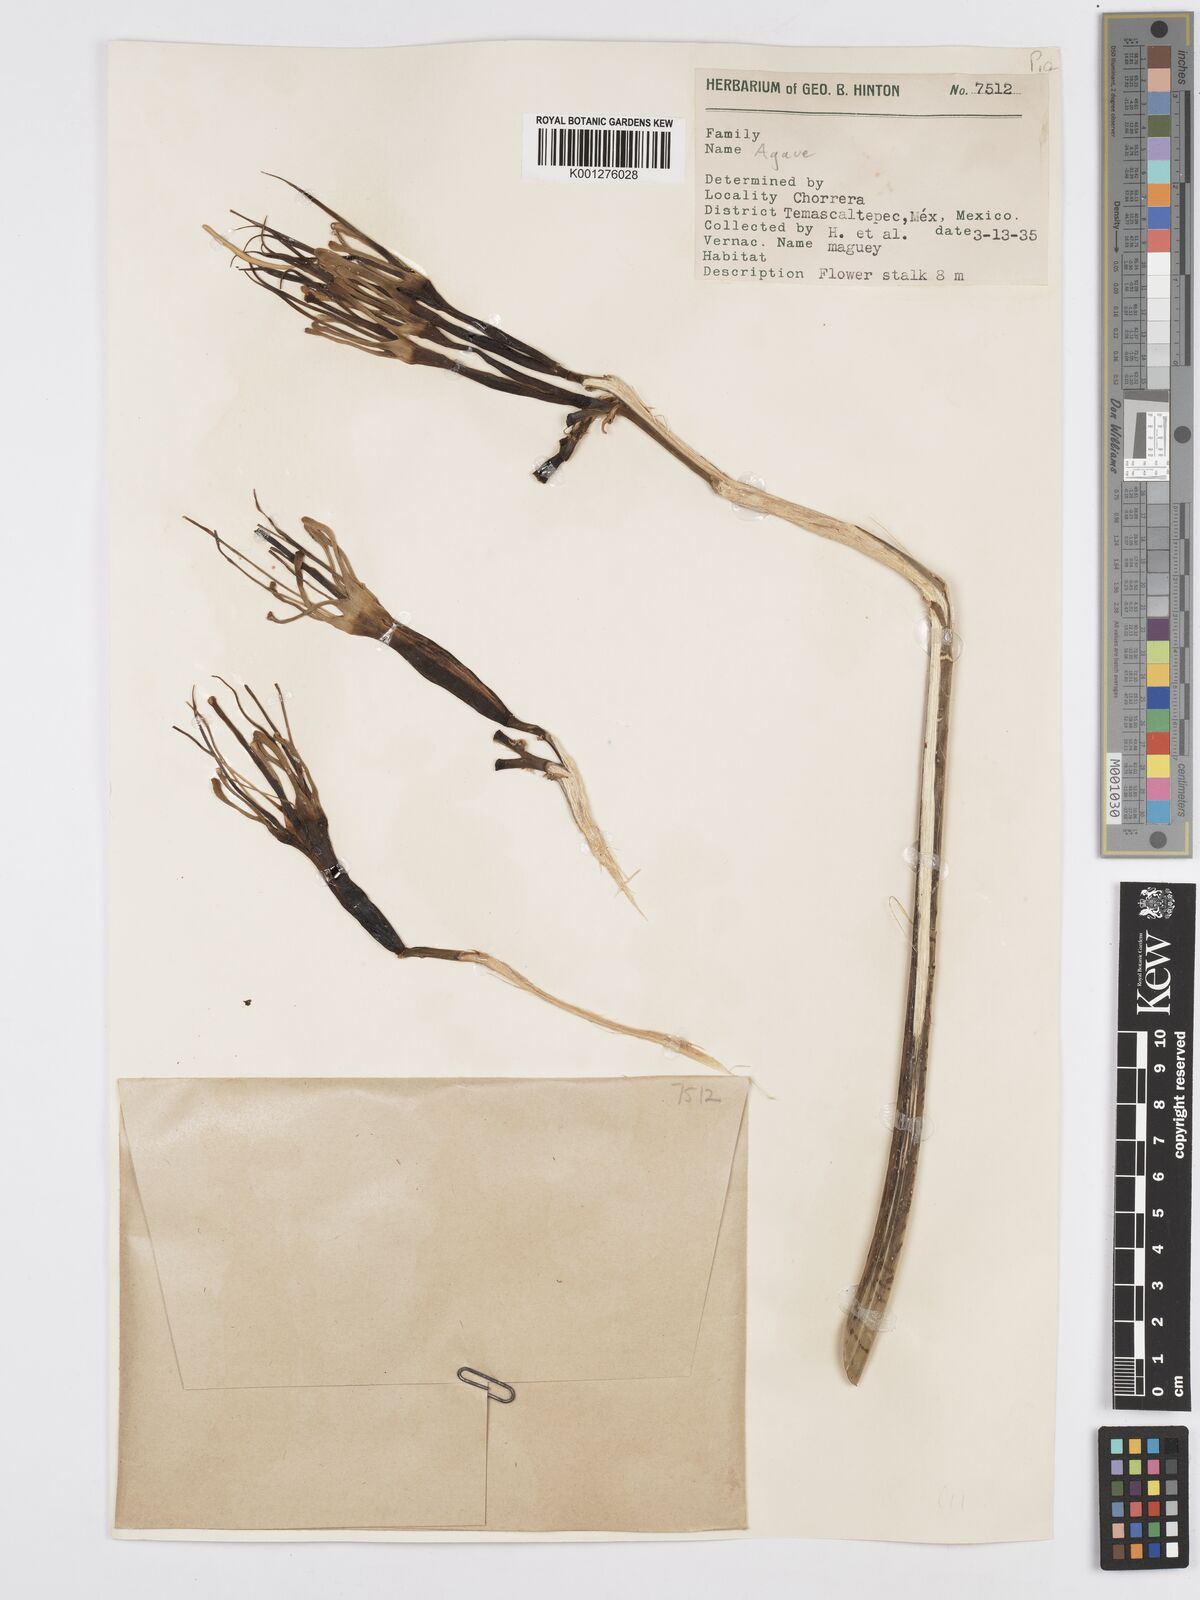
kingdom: Plantae
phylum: Tracheophyta
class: Liliopsida
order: Asparagales
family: Asparagaceae
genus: Agave
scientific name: Agave
